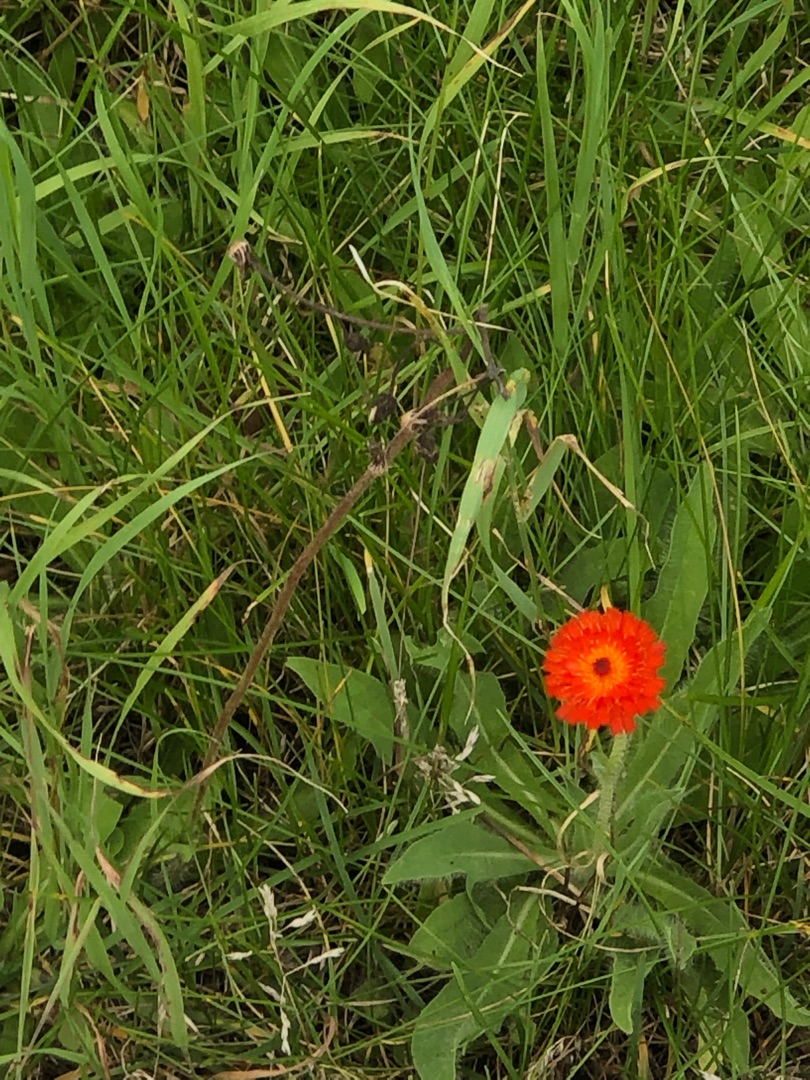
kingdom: Plantae
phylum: Tracheophyta
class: Magnoliopsida
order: Asterales
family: Asteraceae
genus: Pilosella
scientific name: Pilosella aurantiaca
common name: Pomerans-høgeurt
